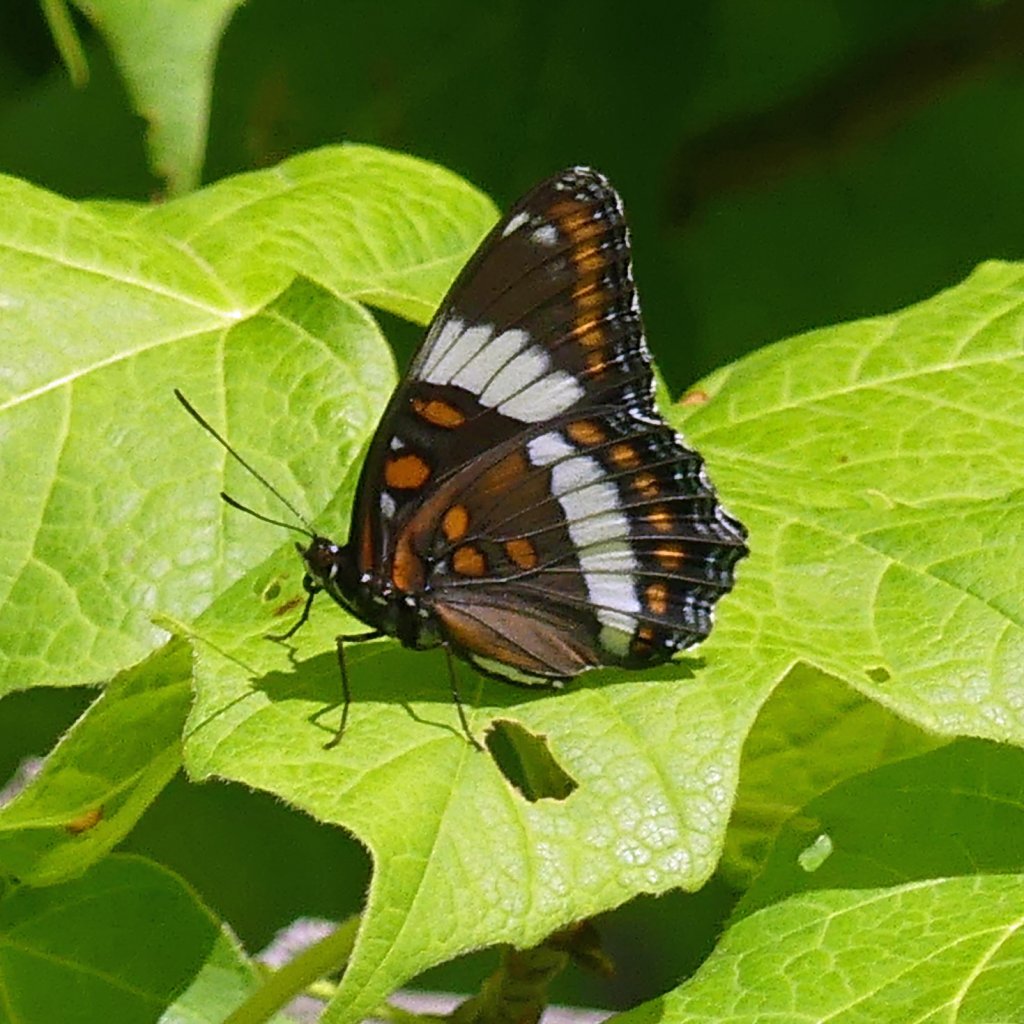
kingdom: Animalia
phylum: Arthropoda
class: Insecta
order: Lepidoptera
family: Nymphalidae
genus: Limenitis
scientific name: Limenitis arthemis
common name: Red-spotted Admiral
